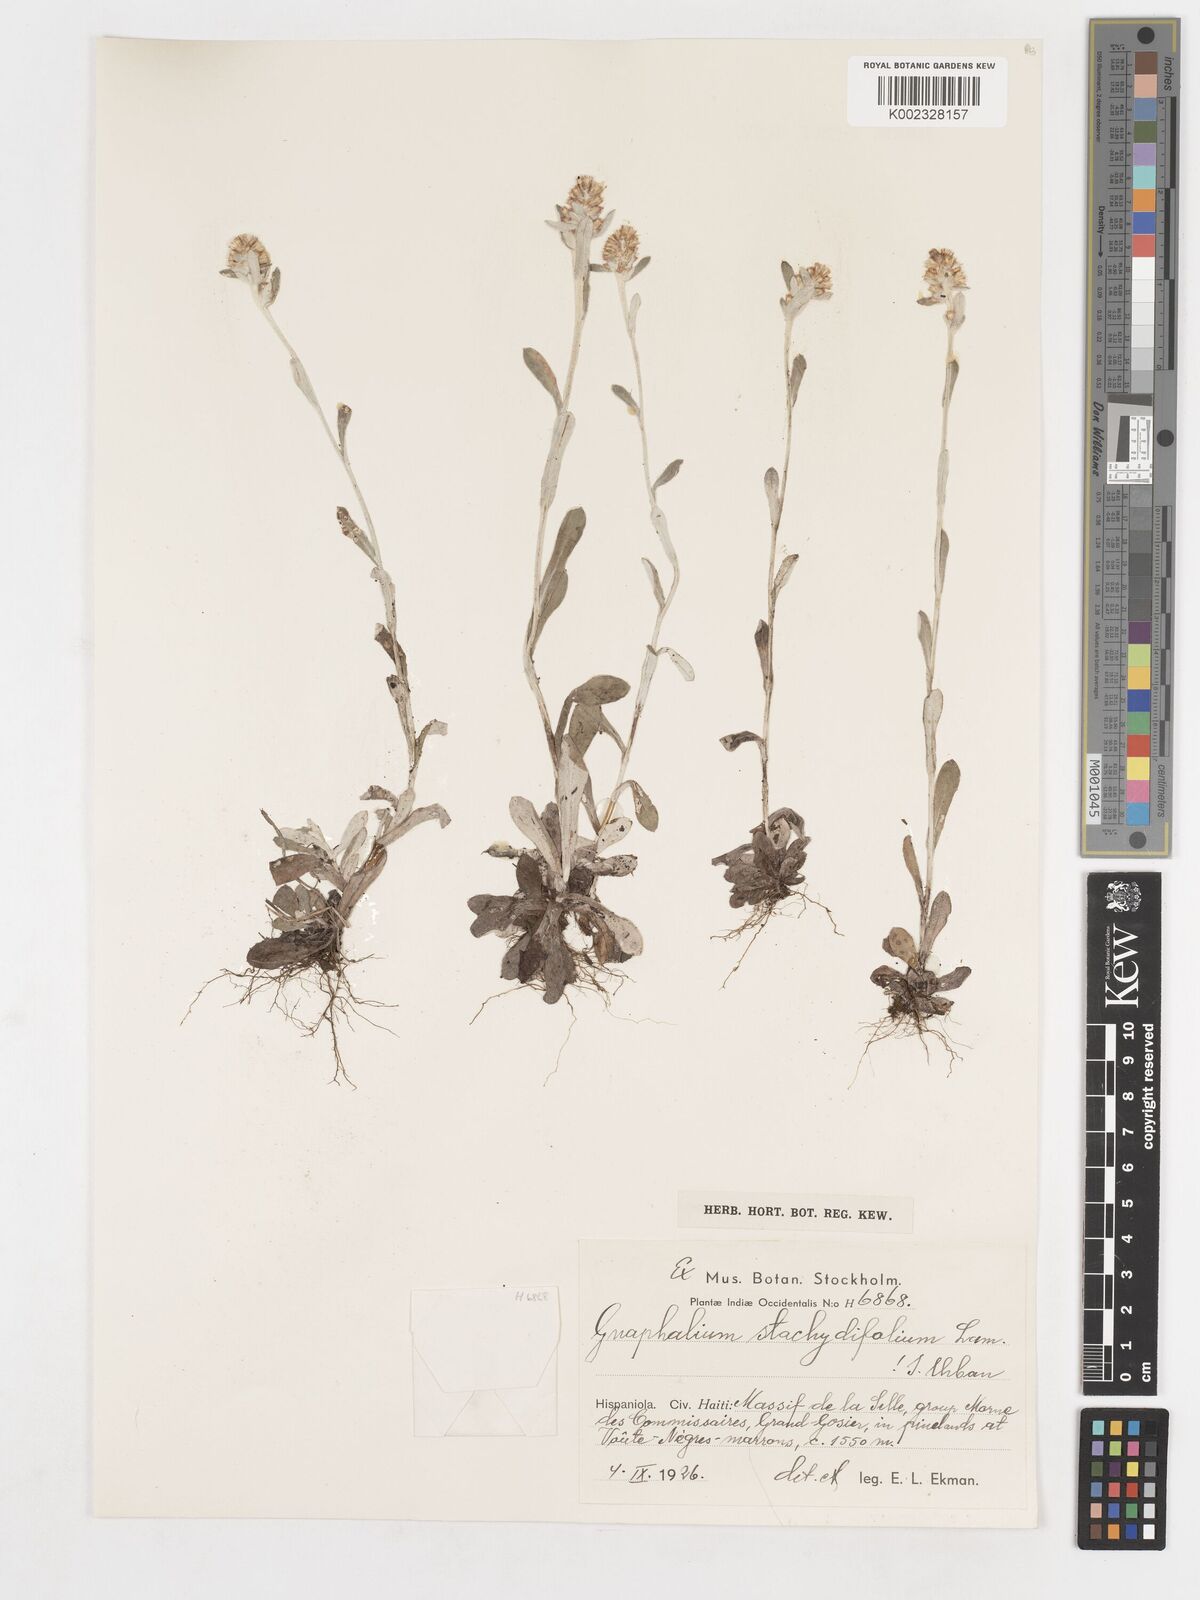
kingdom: Plantae
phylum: Tracheophyta
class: Magnoliopsida
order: Asterales
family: Asteraceae
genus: Gamochaeta
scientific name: Gamochaeta stachidifolia
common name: Sunflower
